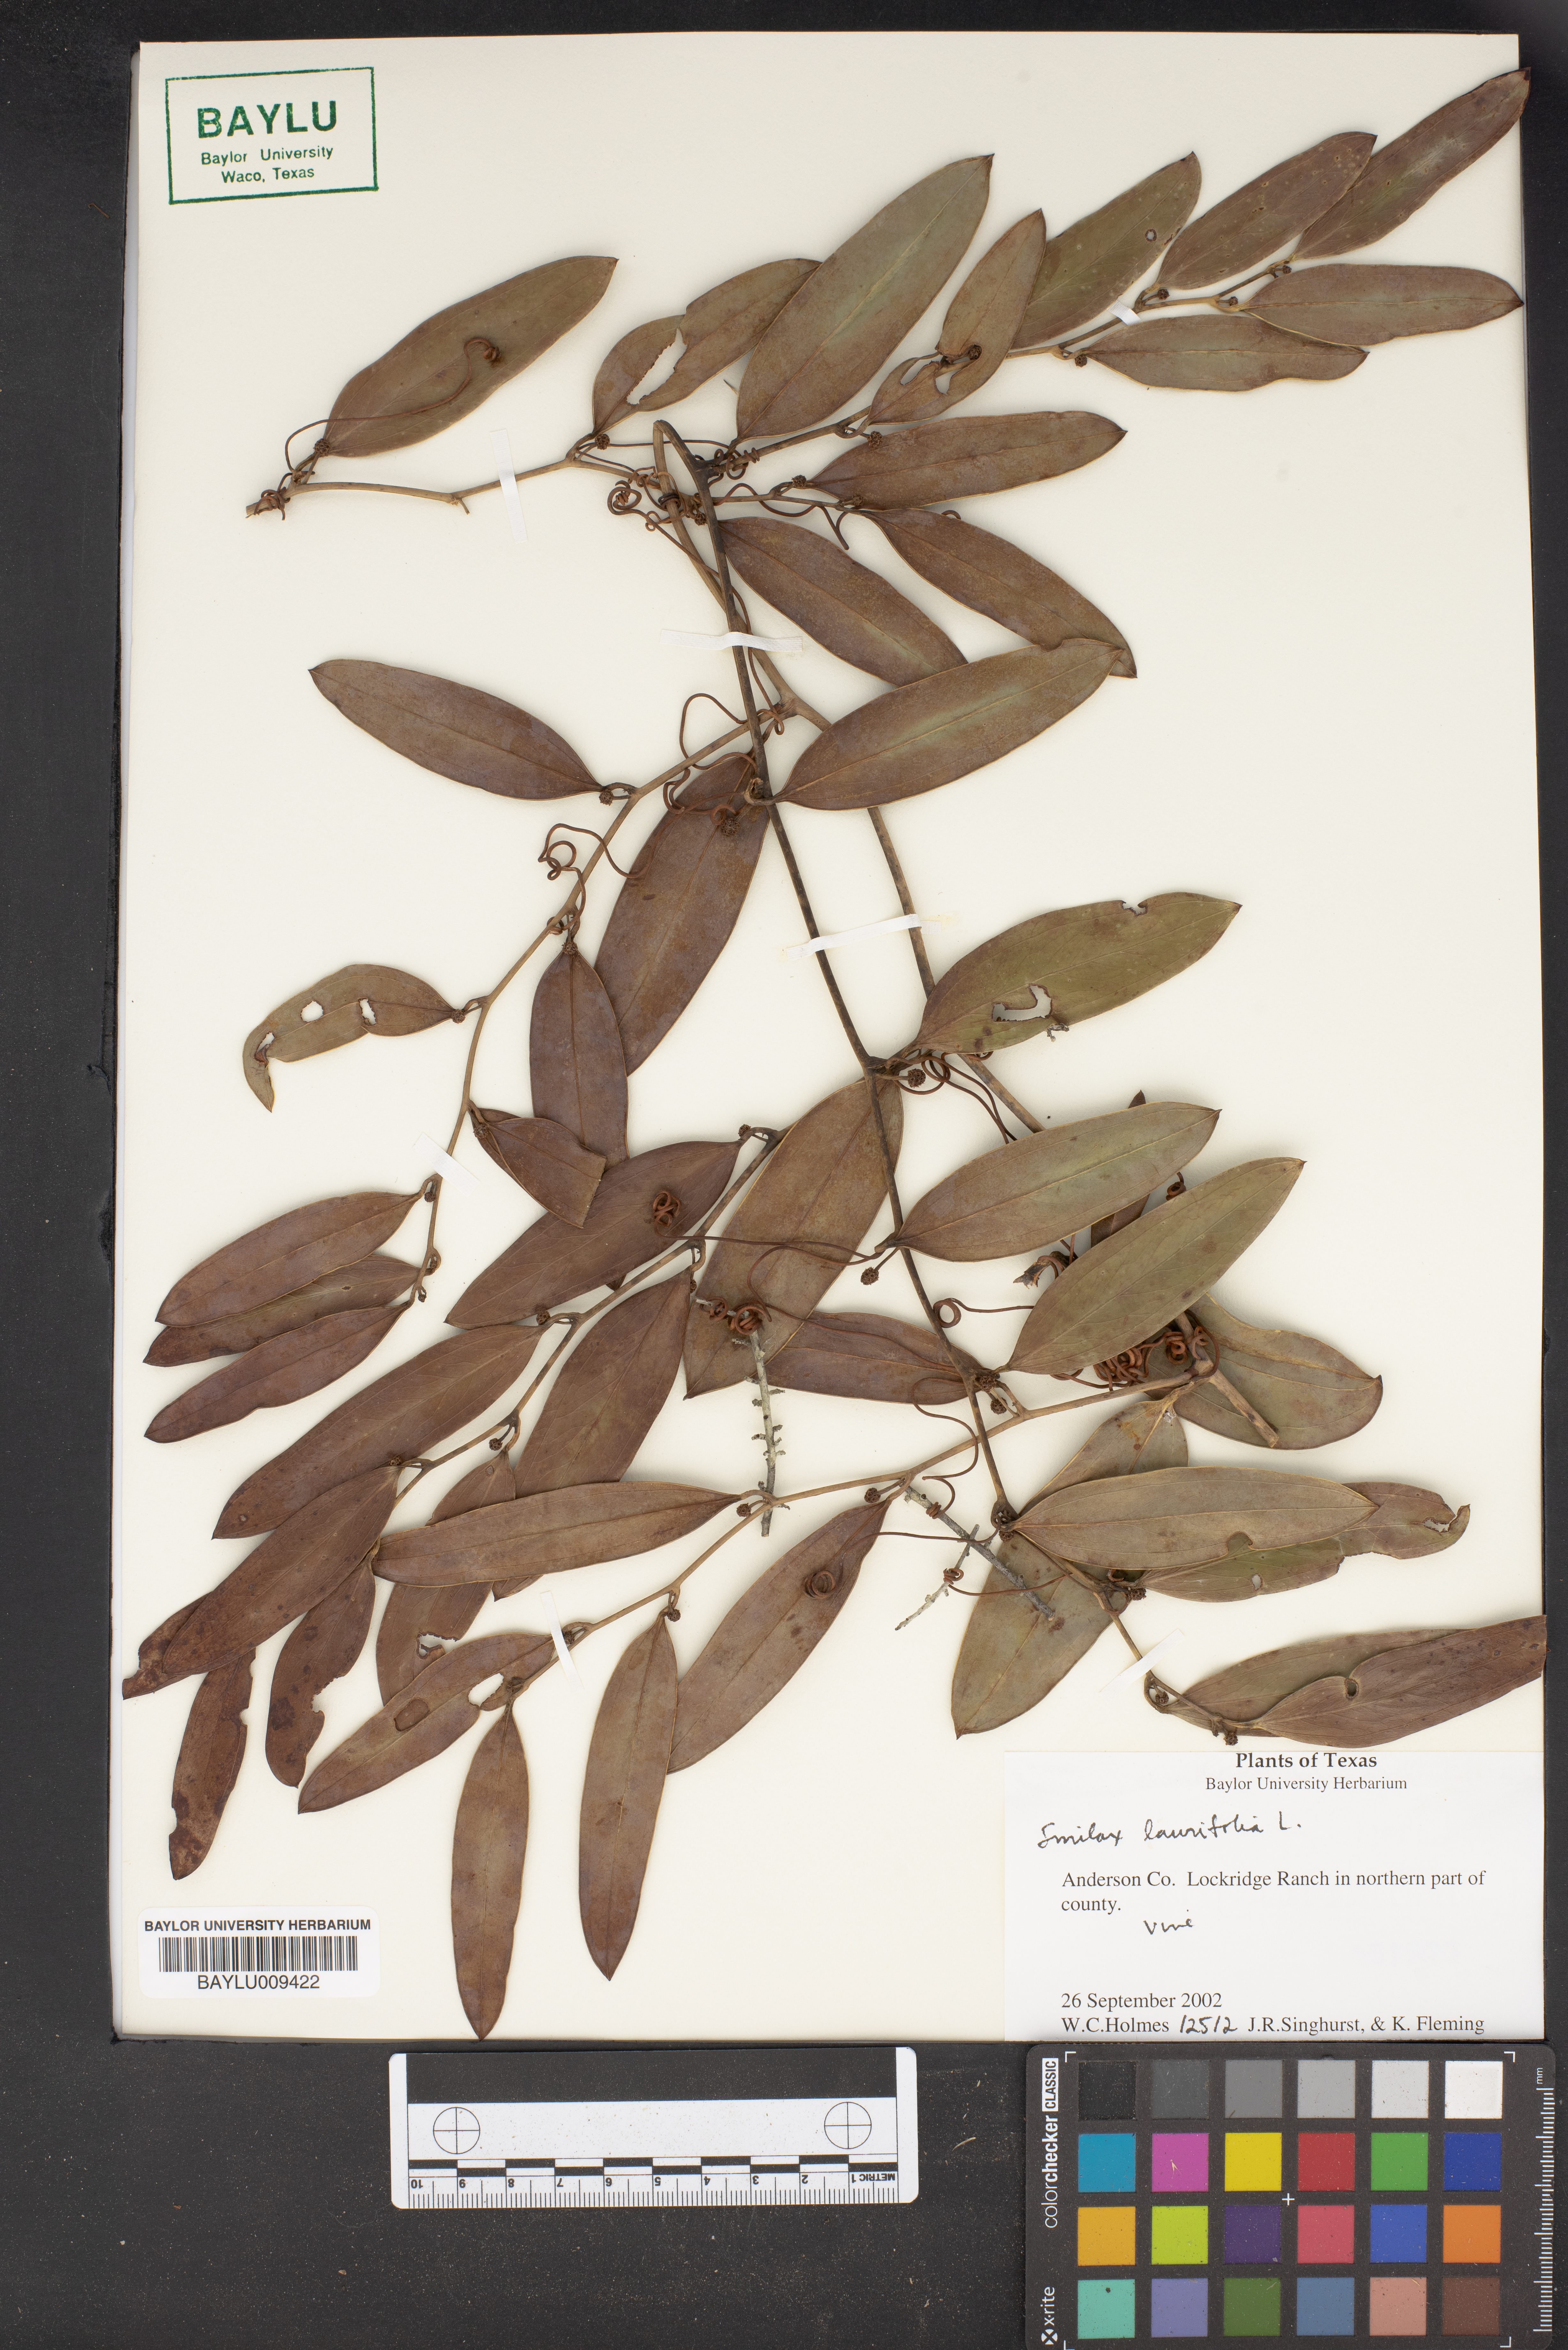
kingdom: Plantae
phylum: Tracheophyta
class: Liliopsida
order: Liliales
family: Smilacaceae
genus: Smilax
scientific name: Smilax laurifolia
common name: Bamboovine
